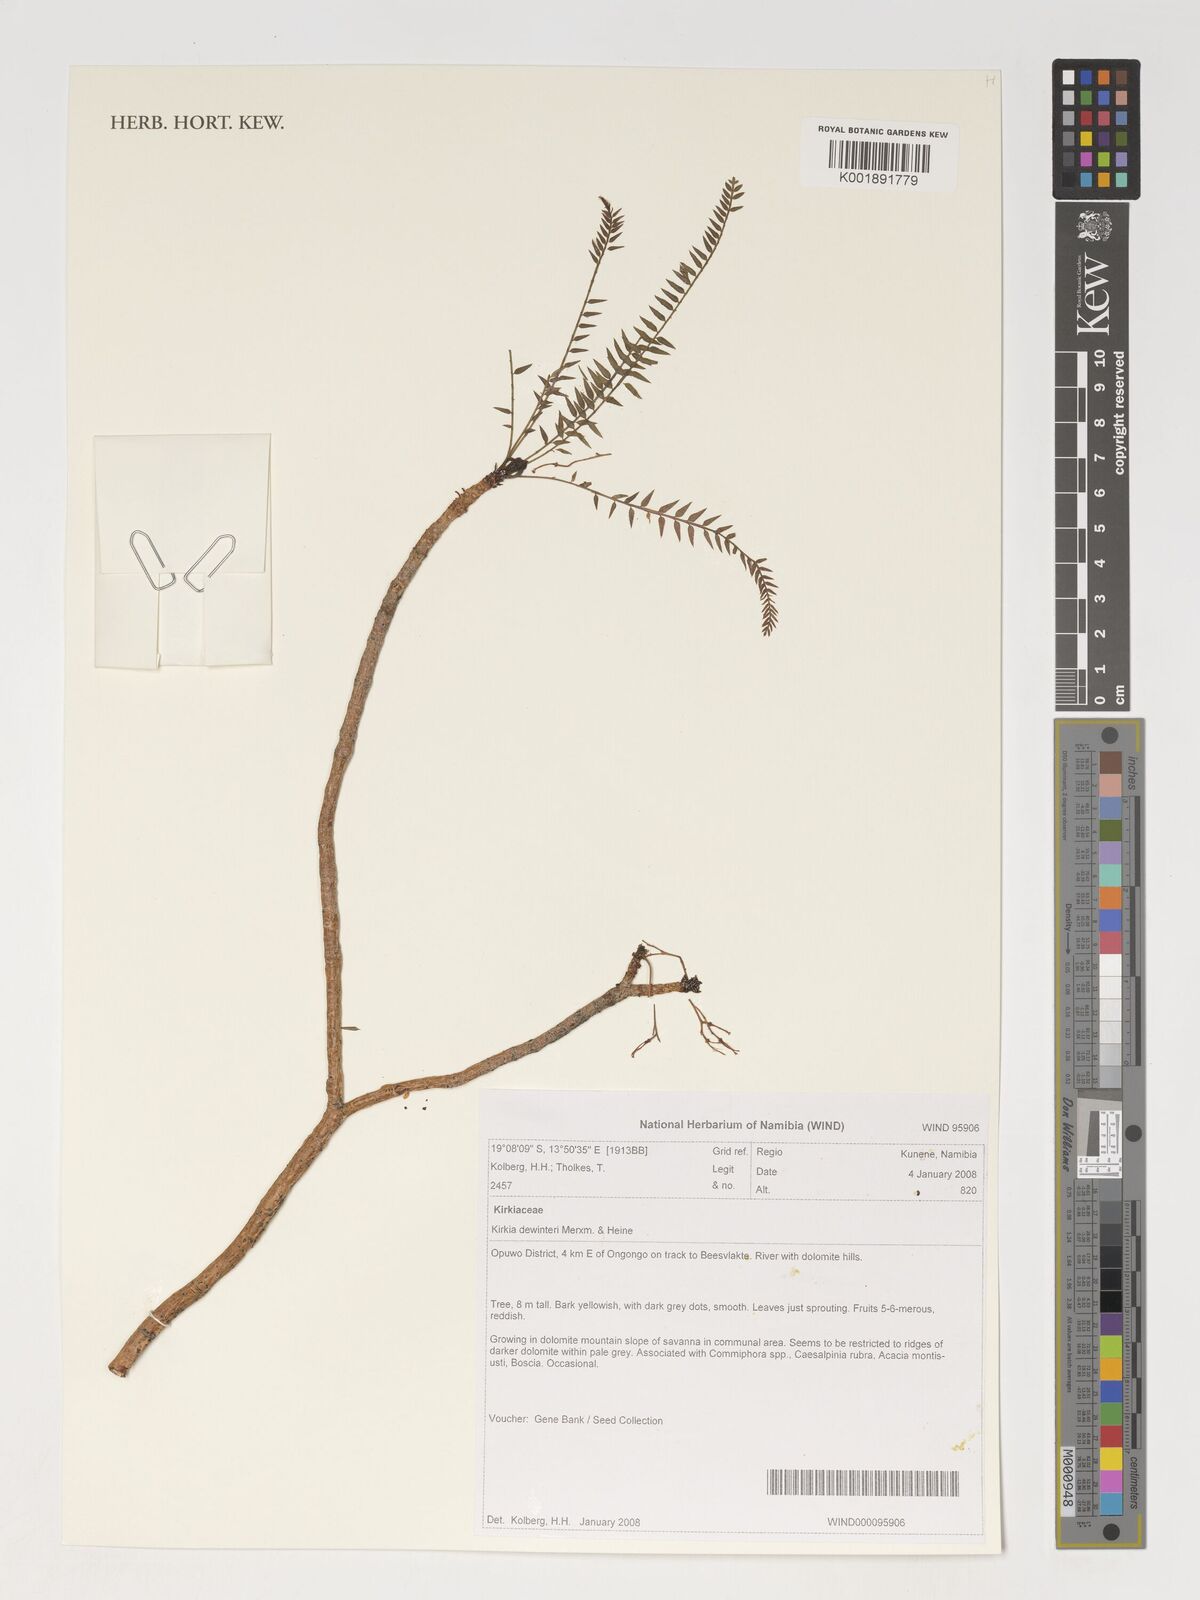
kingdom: Plantae
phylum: Tracheophyta
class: Magnoliopsida
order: Sapindales
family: Kirkiaceae
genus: Kirkia
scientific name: Kirkia dewinteri
